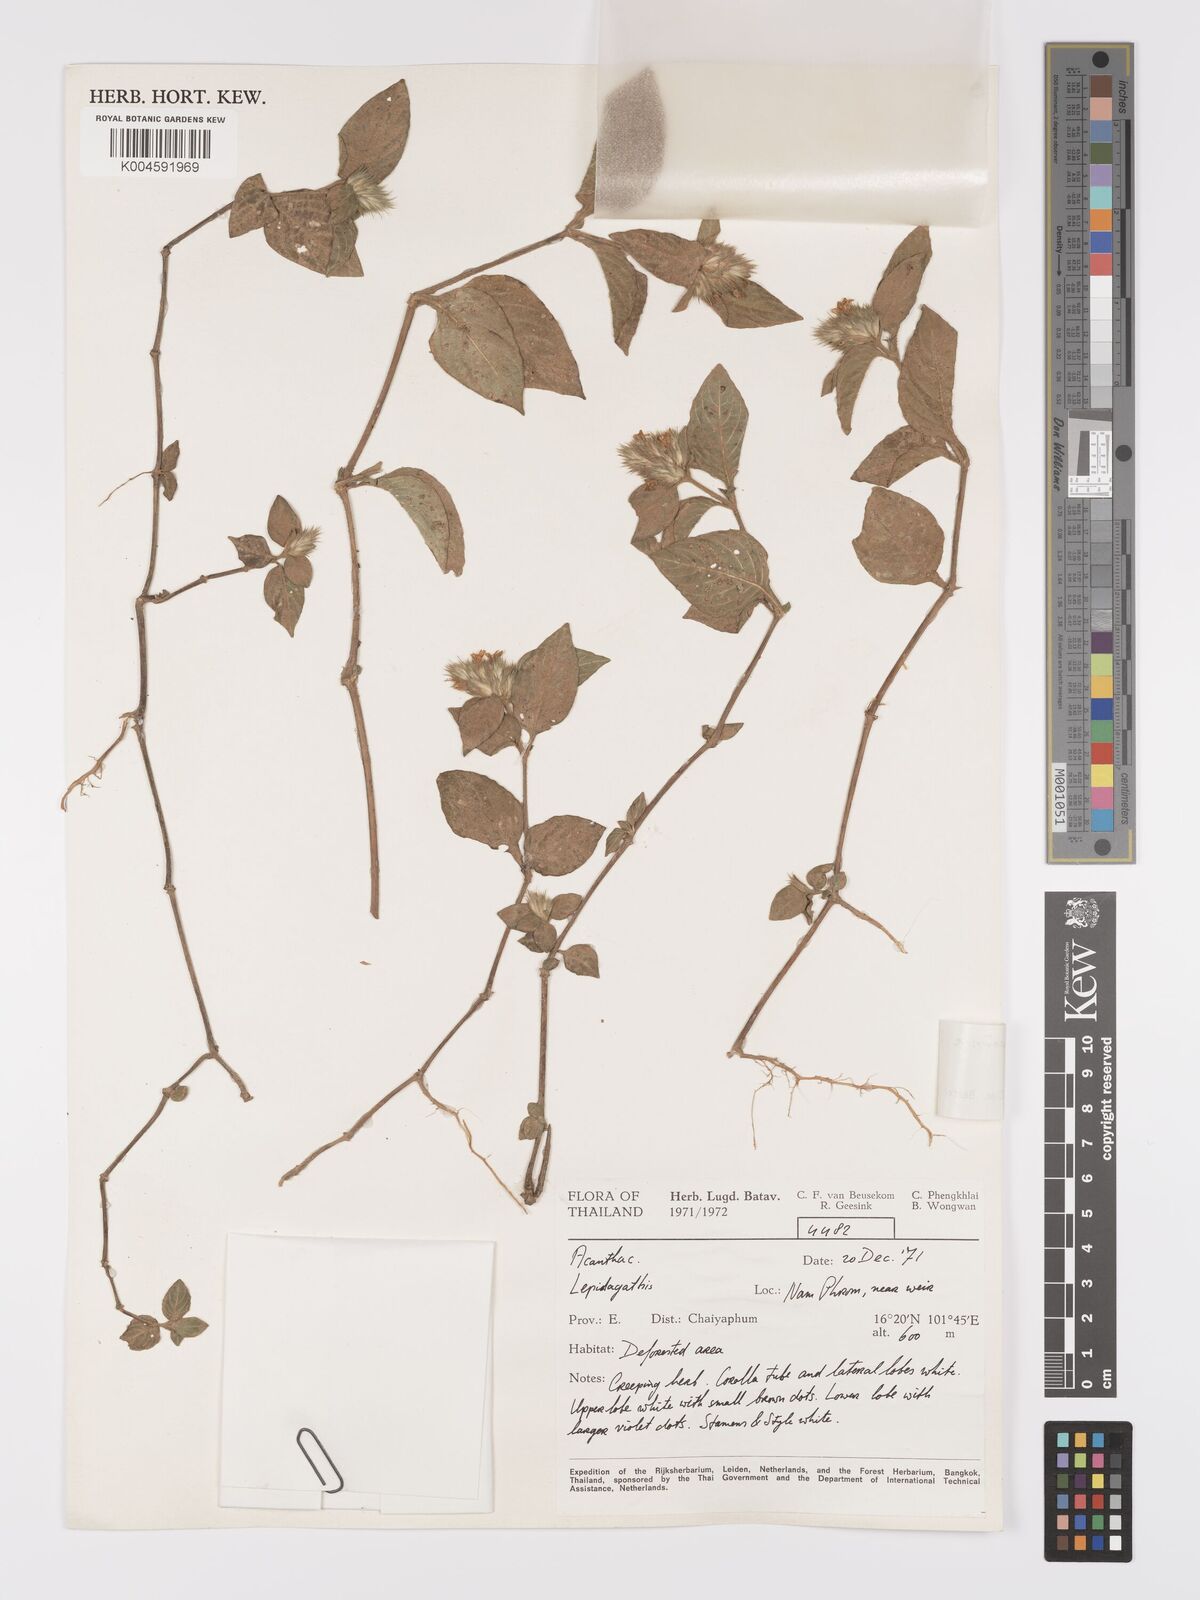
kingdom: Plantae
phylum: Tracheophyta
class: Magnoliopsida
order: Lamiales
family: Acanthaceae
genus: Lepidagathis
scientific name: Lepidagathis incurva
